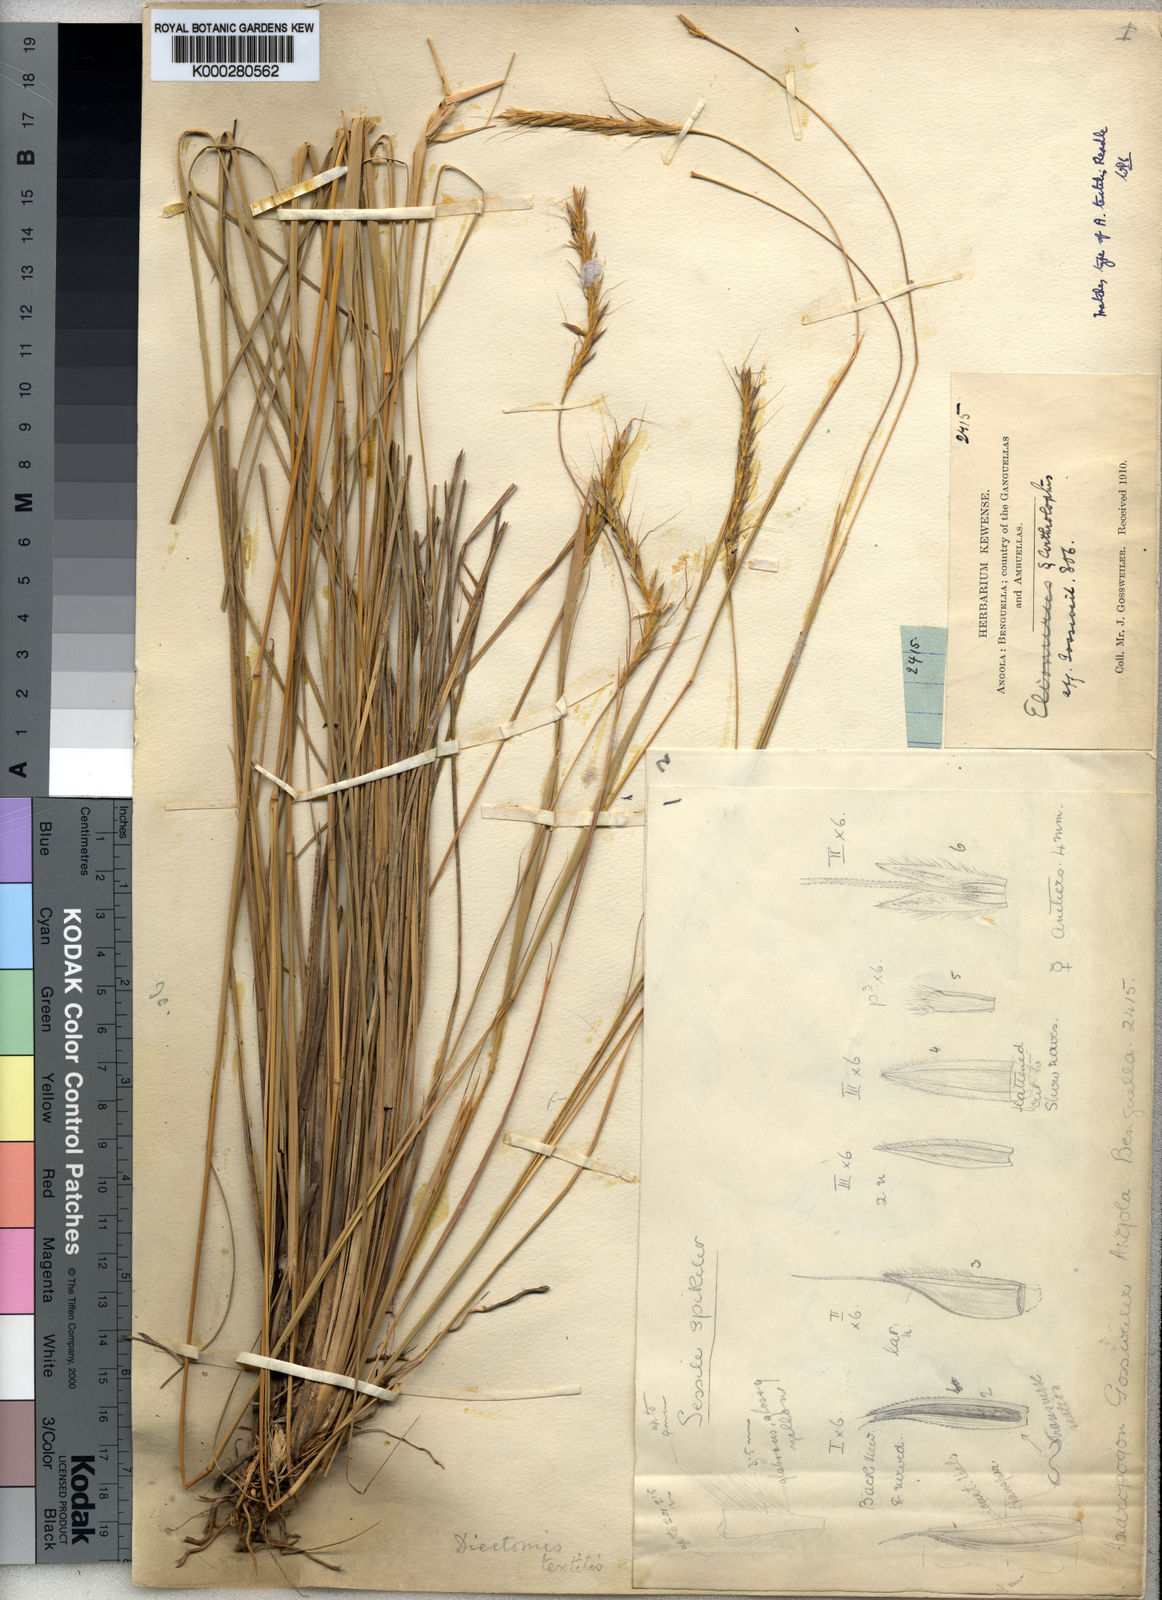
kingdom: Plantae
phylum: Tracheophyta
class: Liliopsida
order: Poales
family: Poaceae
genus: Andropogon
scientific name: Andropogon textilis
